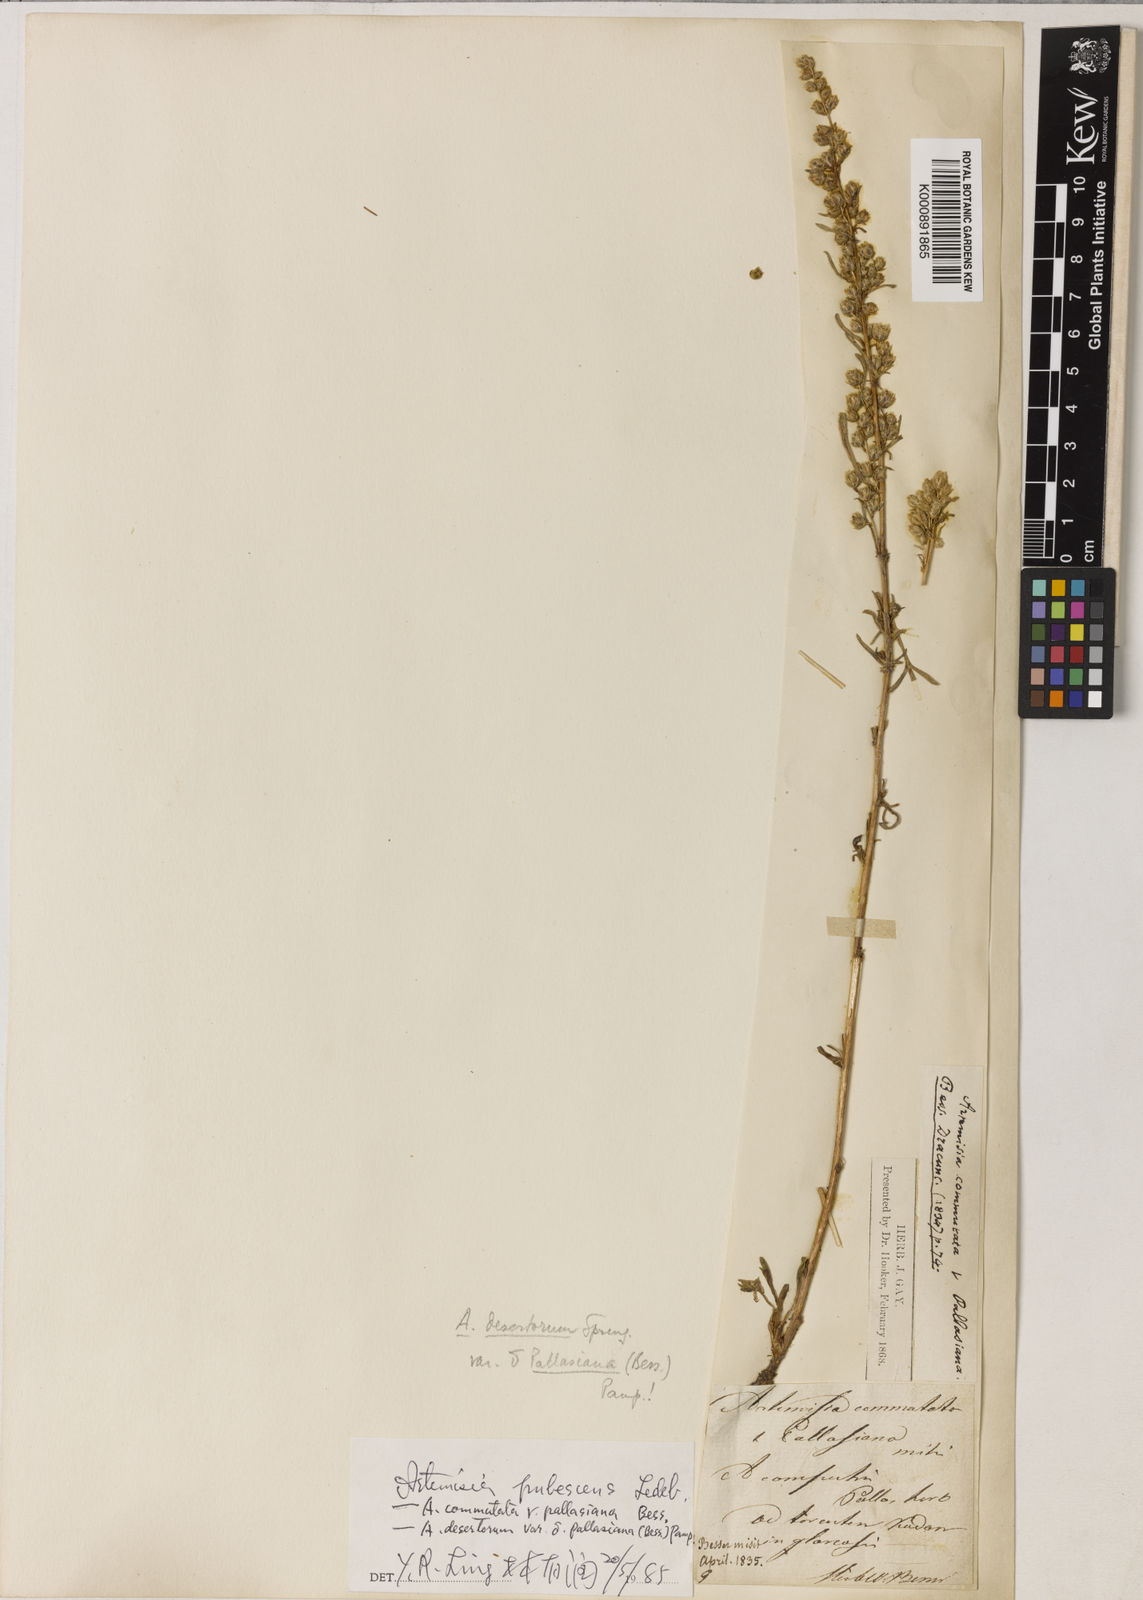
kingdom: Plantae
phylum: Tracheophyta
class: Magnoliopsida
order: Asterales
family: Asteraceae
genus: Artemisia
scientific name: Artemisia pubescens
